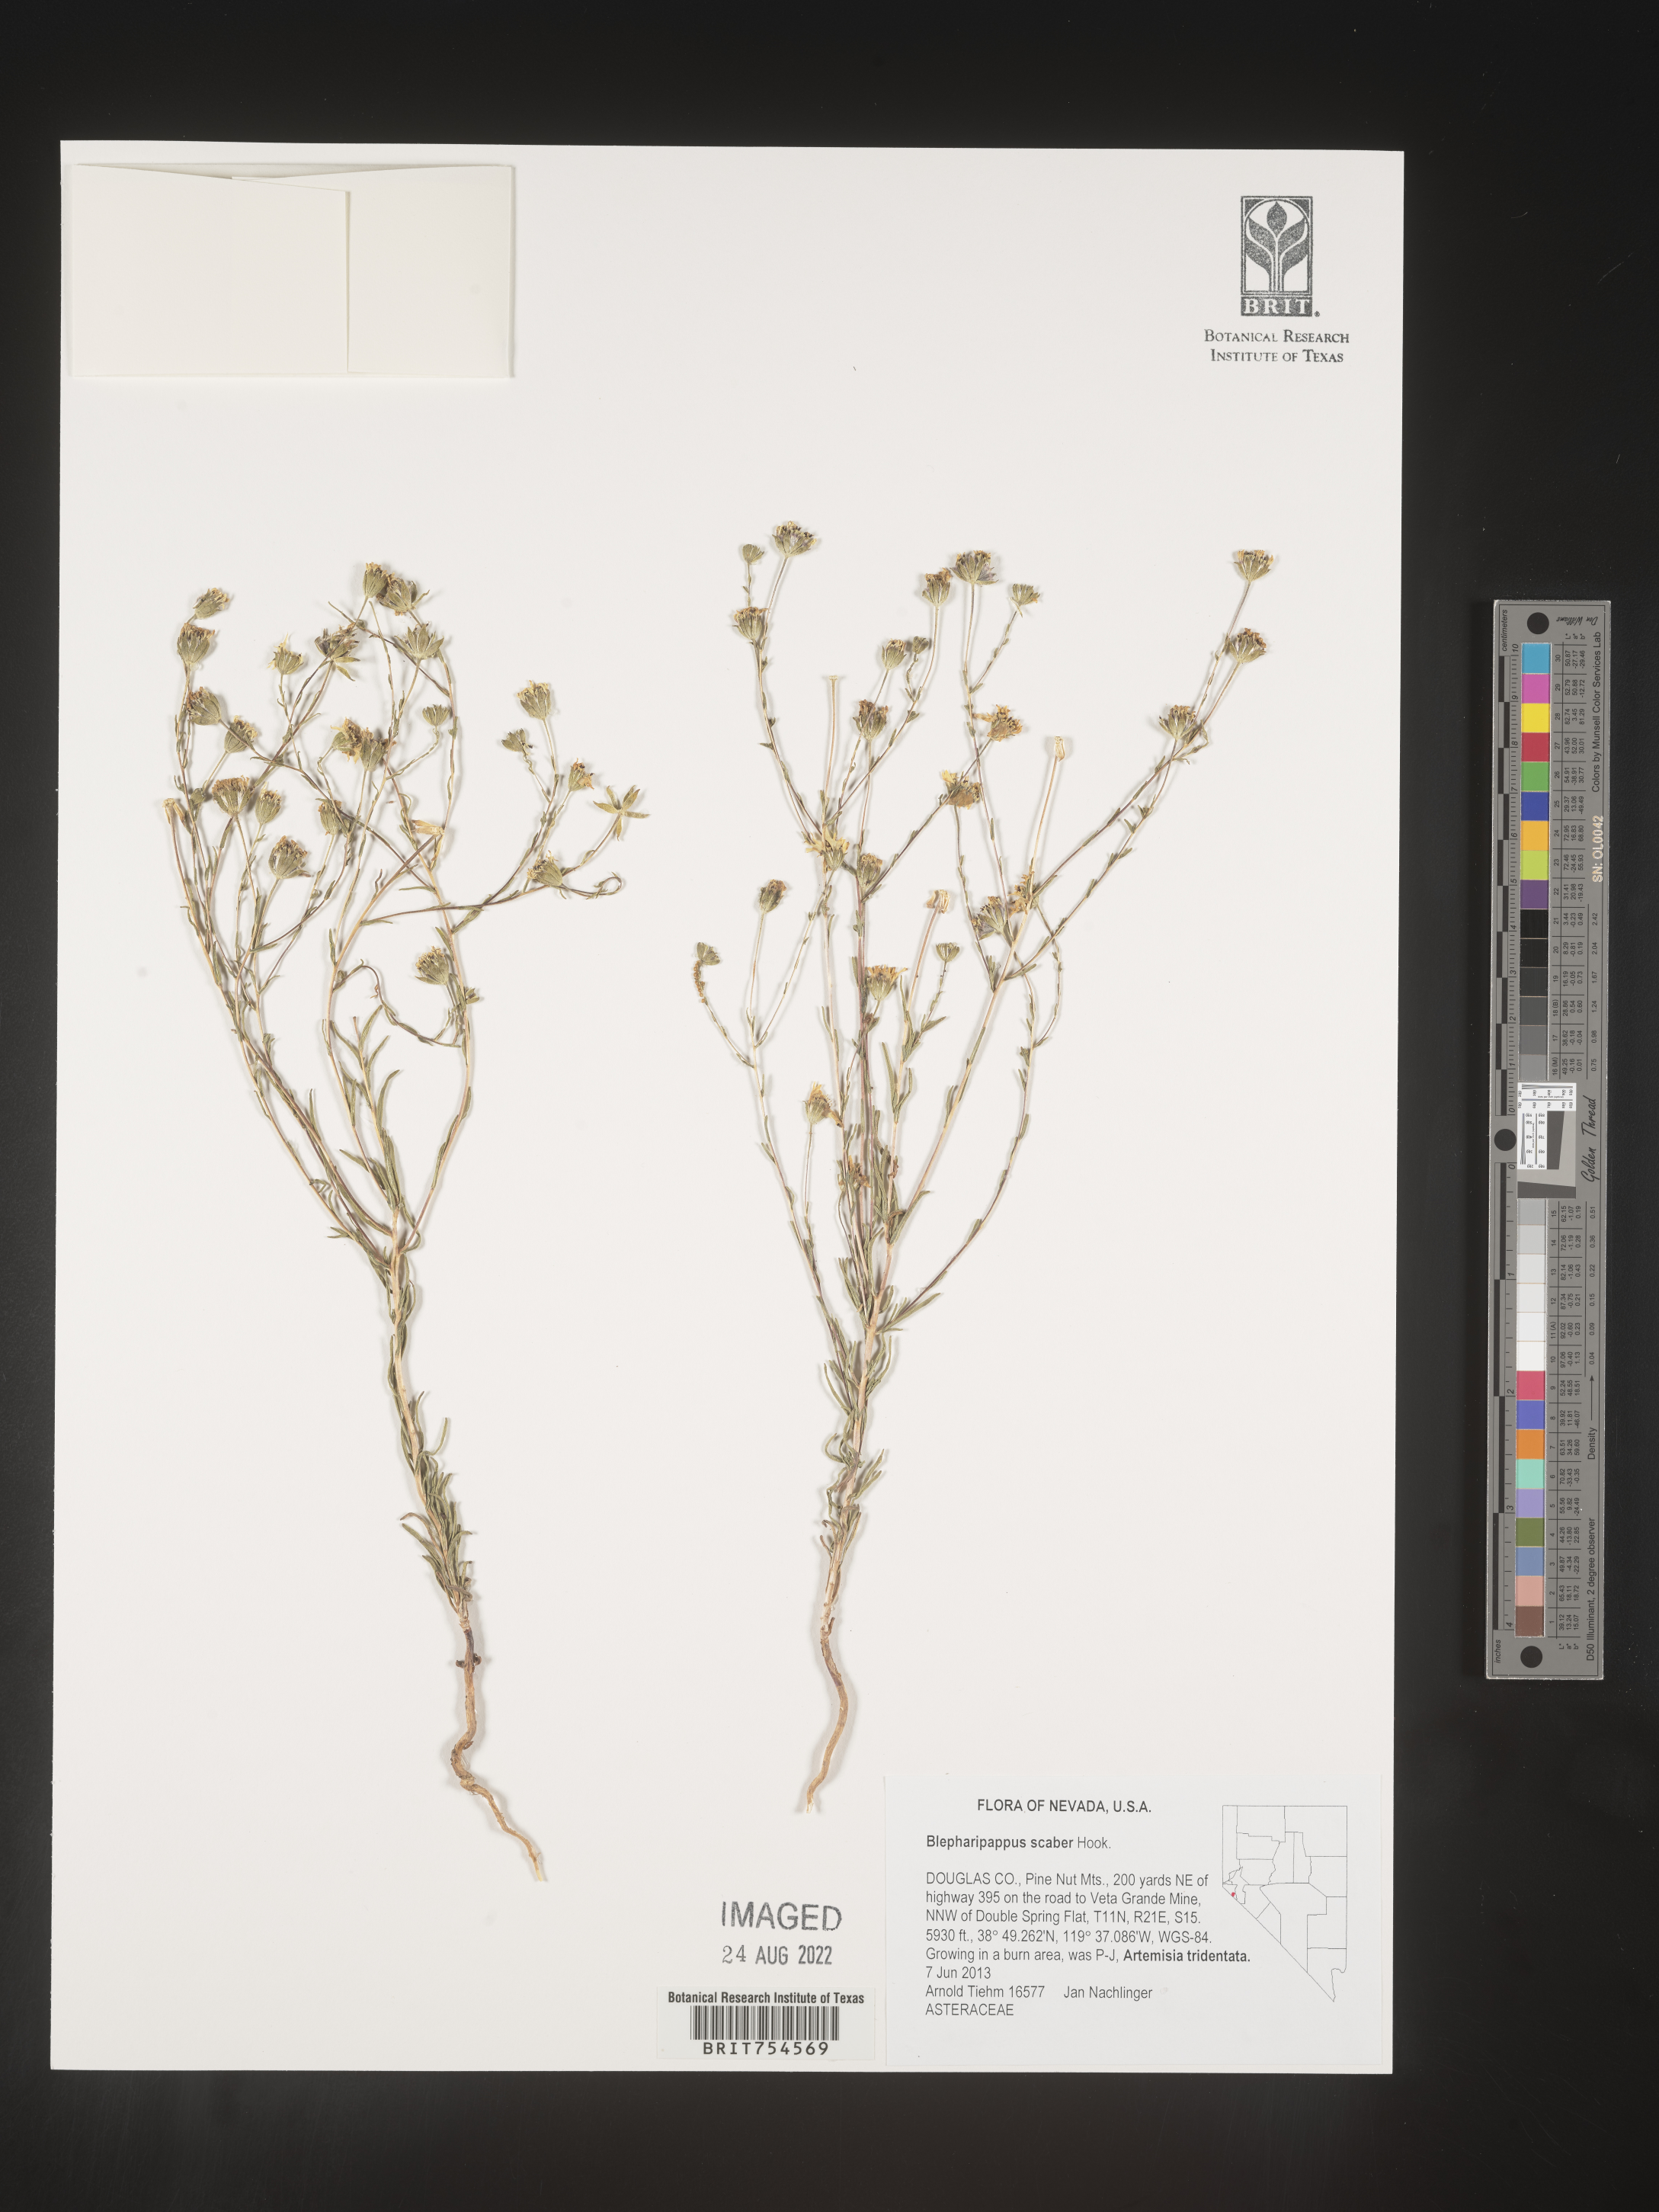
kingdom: Plantae
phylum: Tracheophyta
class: Magnoliopsida
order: Asterales
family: Asteraceae
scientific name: Asteraceae
